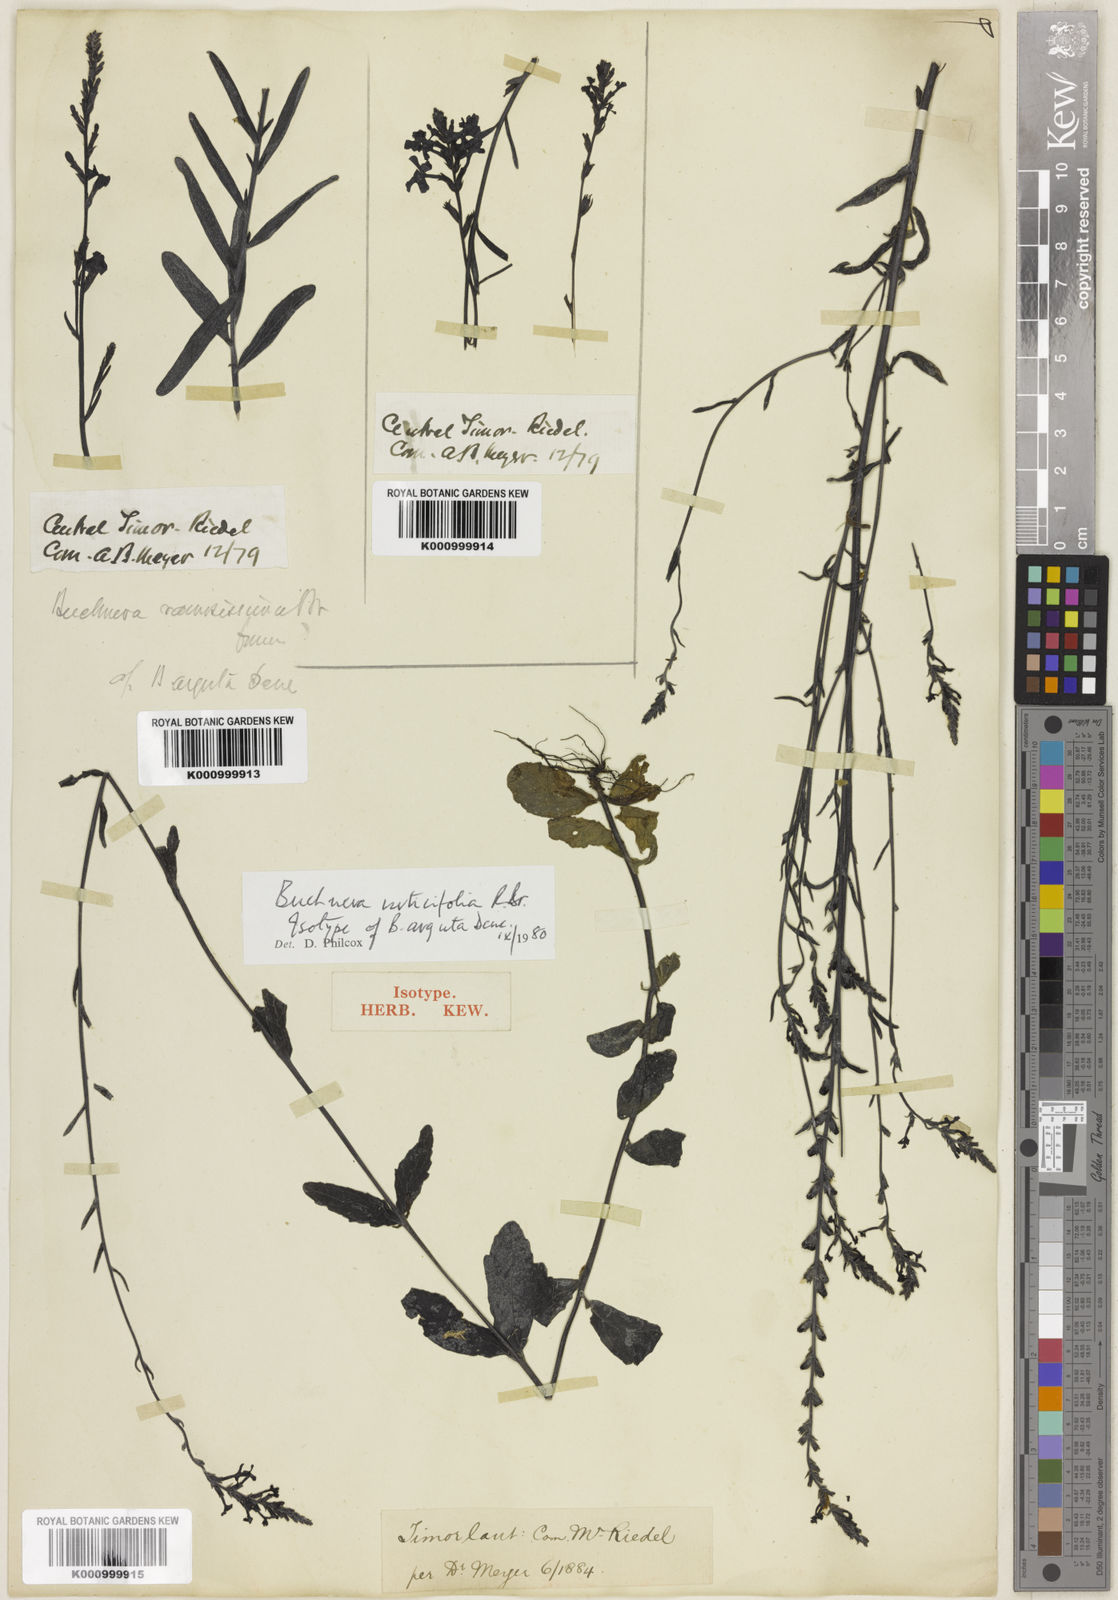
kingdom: Plantae
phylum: Tracheophyta
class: Magnoliopsida
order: Lamiales
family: Orobanchaceae
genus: Buchnera
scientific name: Buchnera urticifolia
